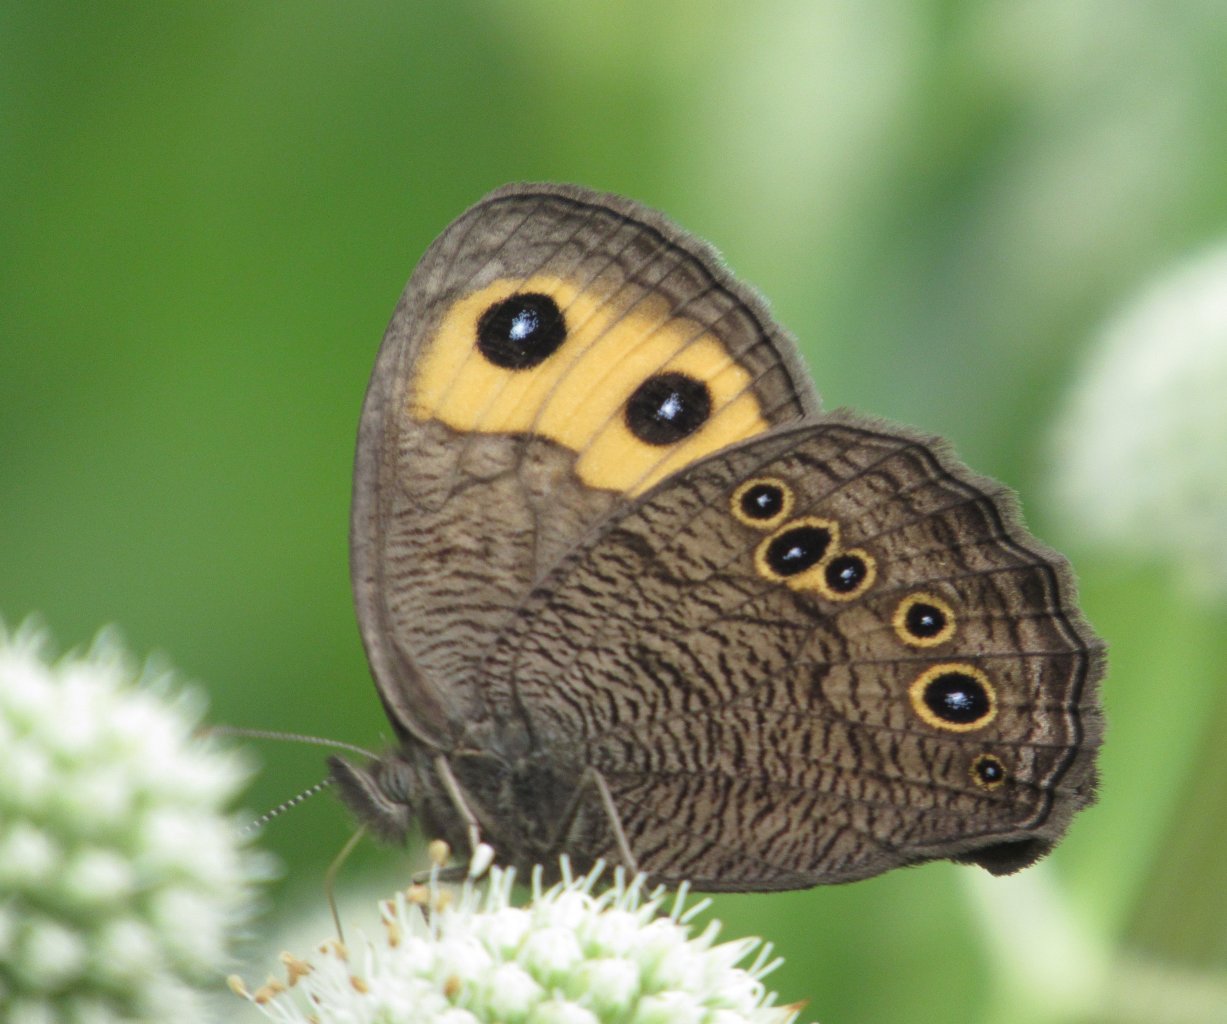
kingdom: Animalia
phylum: Arthropoda
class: Insecta
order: Lepidoptera
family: Nymphalidae
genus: Cercyonis
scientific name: Cercyonis pegala
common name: Common Wood-Nymph
